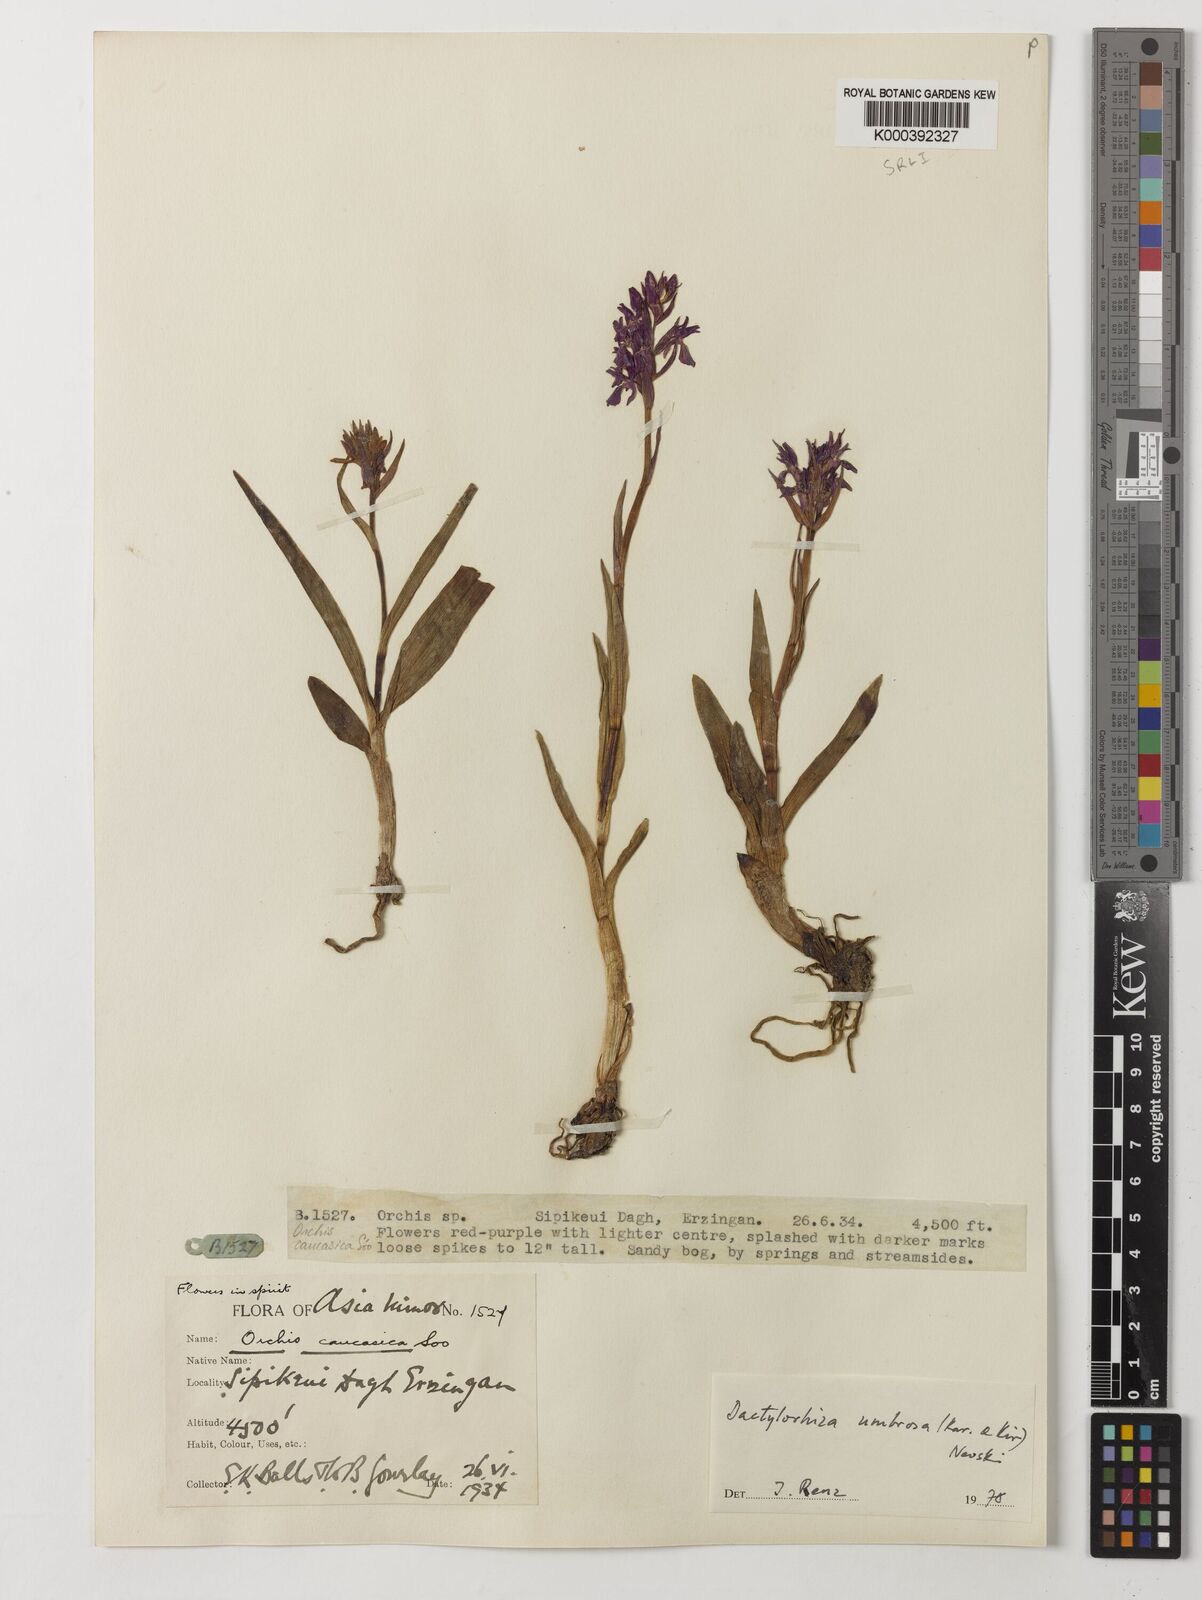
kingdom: Plantae
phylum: Tracheophyta
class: Liliopsida
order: Asparagales
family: Orchidaceae
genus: Dactylorhiza
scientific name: Dactylorhiza
